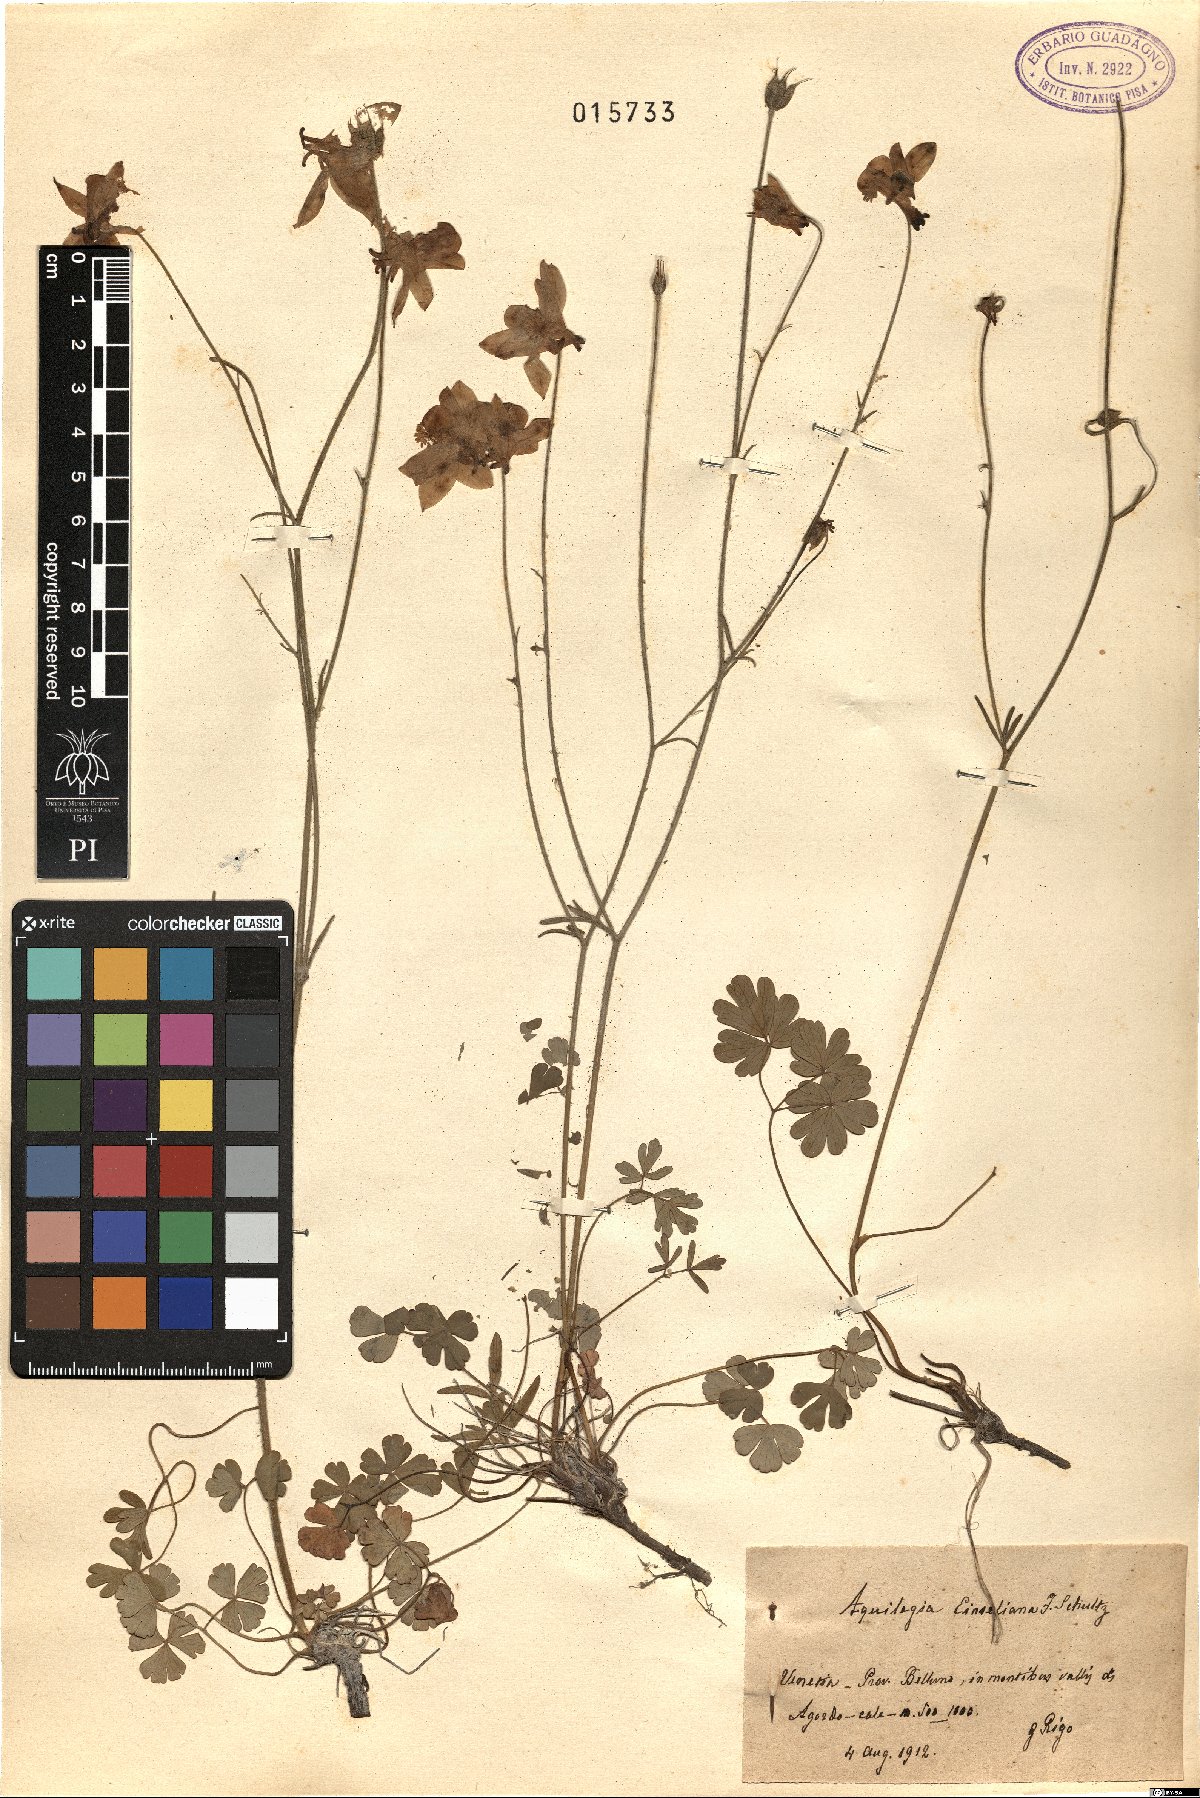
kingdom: Plantae
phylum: Tracheophyta
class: Magnoliopsida
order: Ranunculales
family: Ranunculaceae
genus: Aquilegia
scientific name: Aquilegia einseleana
